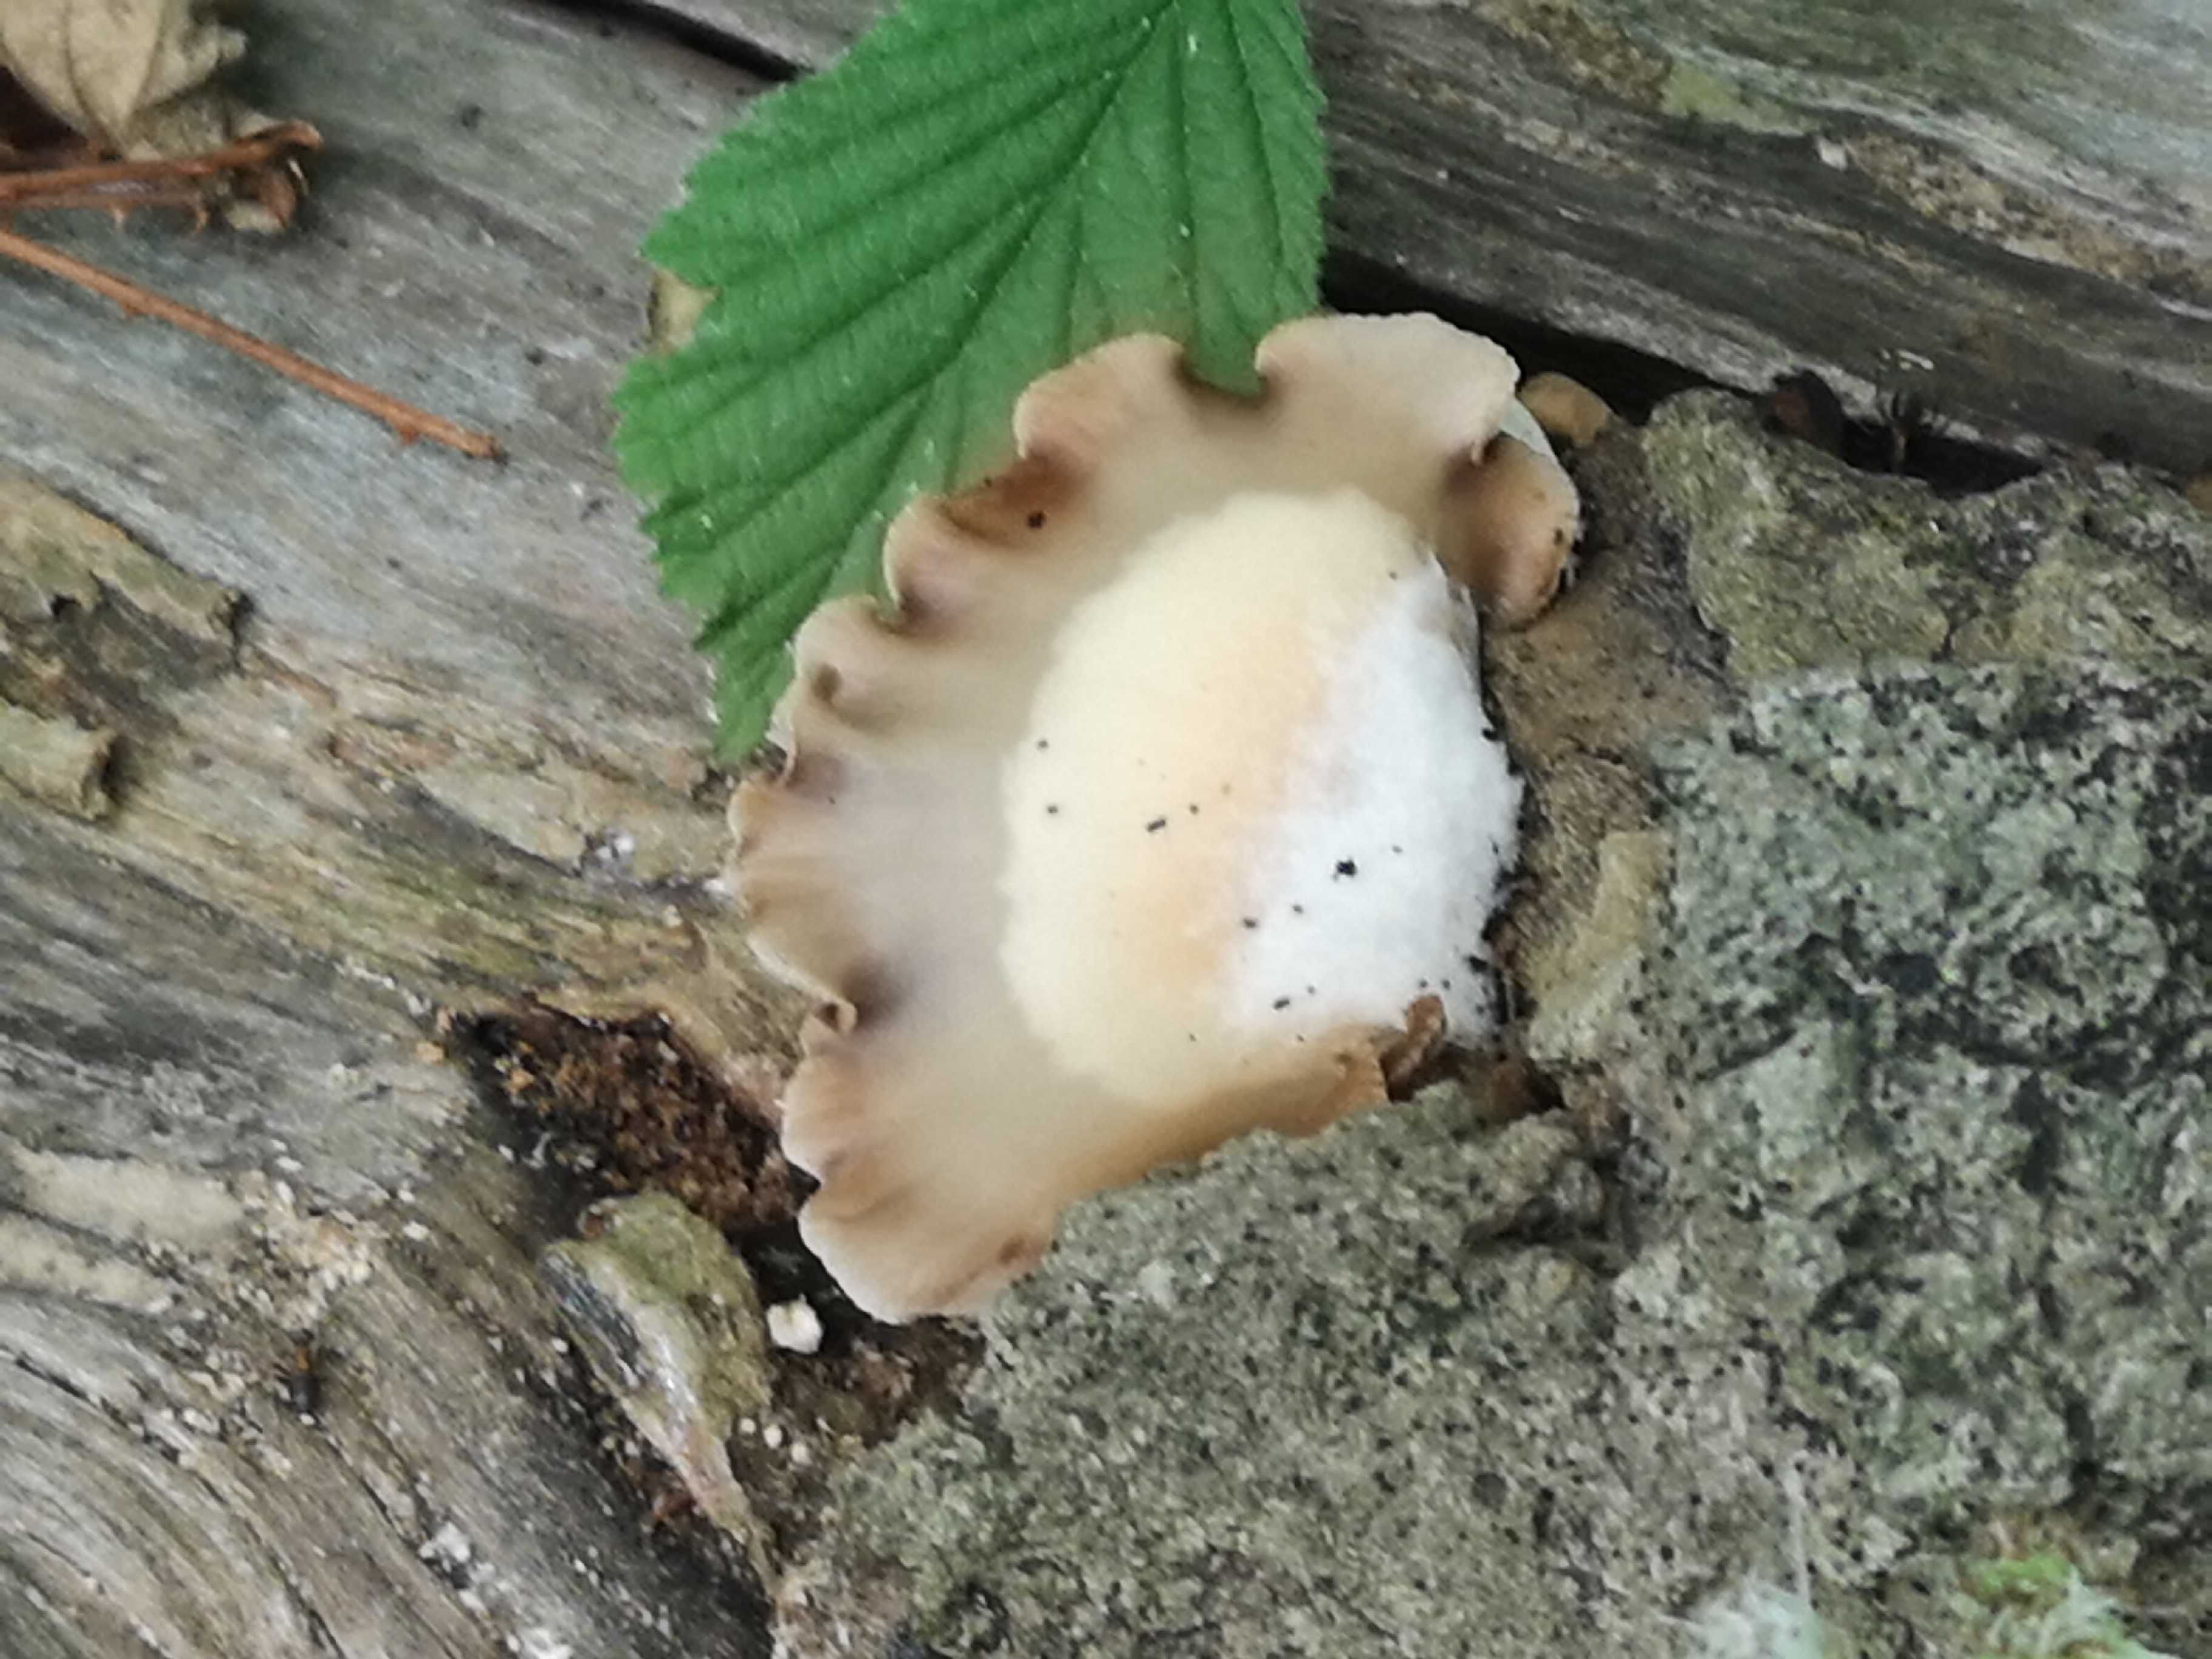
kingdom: Fungi
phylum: Basidiomycota
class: Agaricomycetes
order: Agaricales
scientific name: Agaricales
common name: champignonordenen
